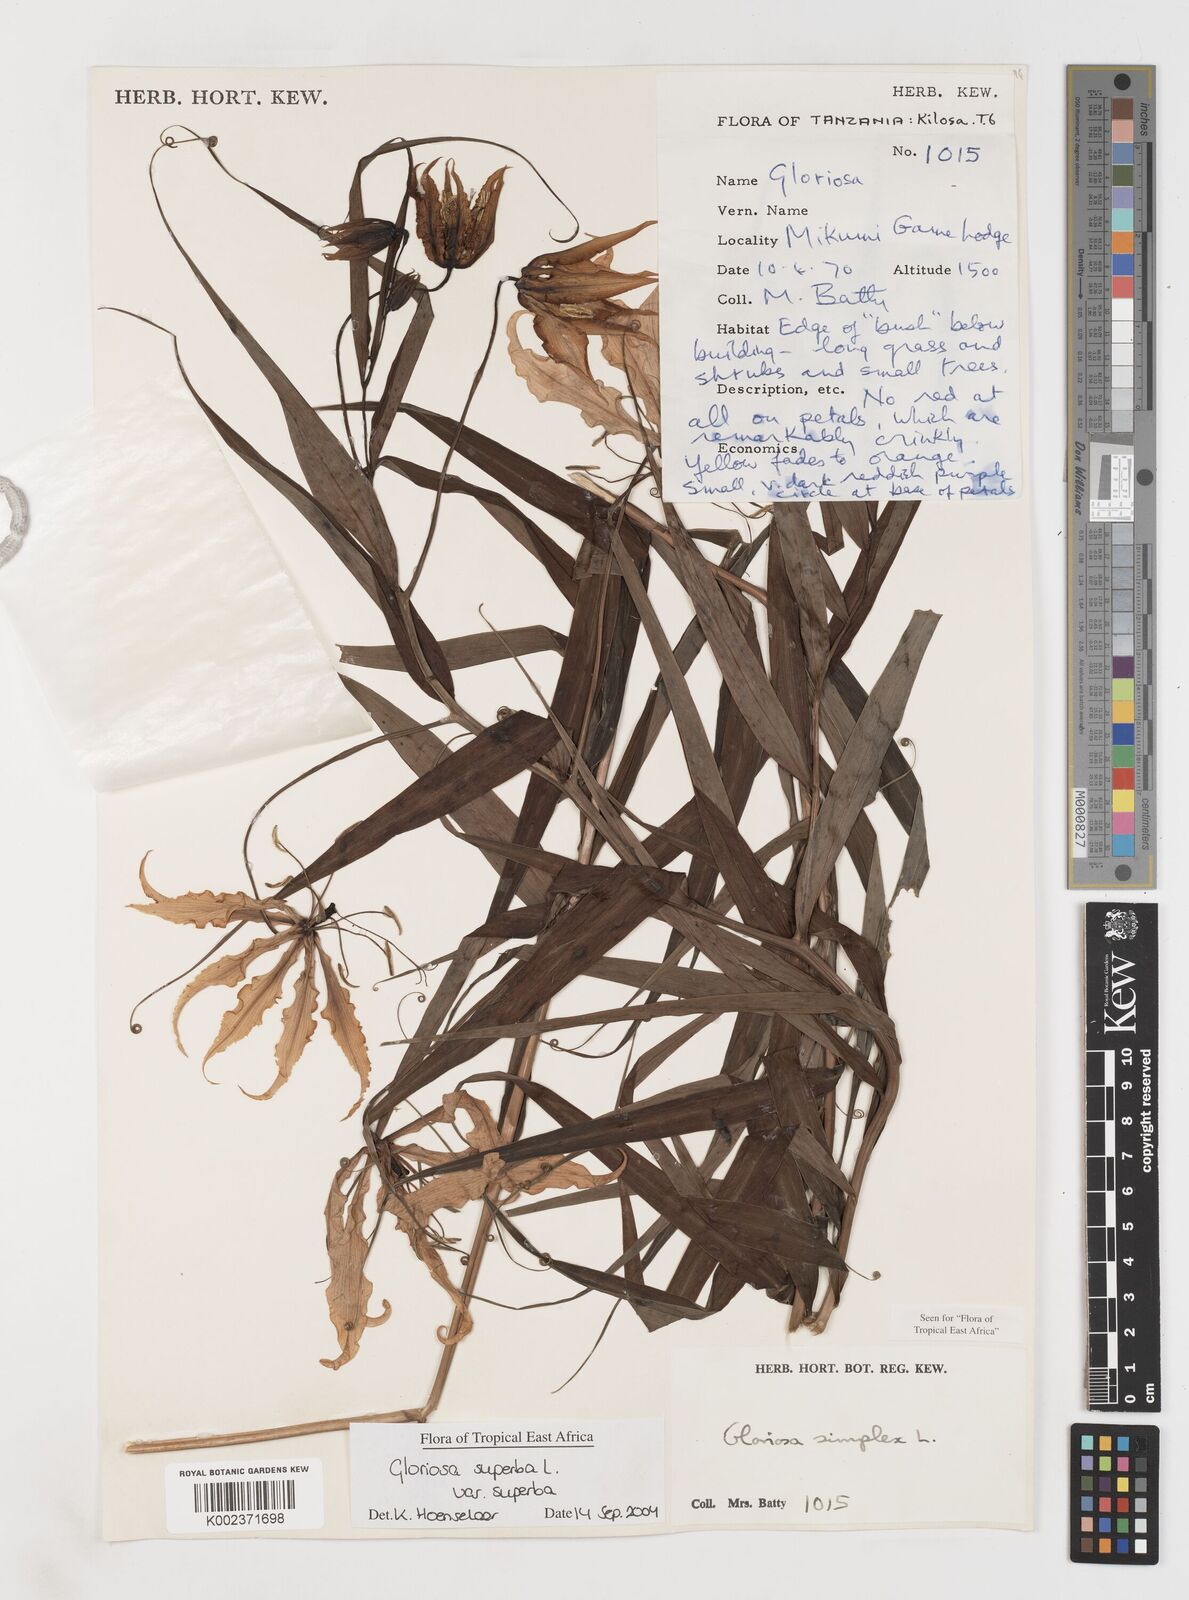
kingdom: Plantae
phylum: Tracheophyta
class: Liliopsida
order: Liliales
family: Colchicaceae
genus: Gloriosa
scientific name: Gloriosa simplex
